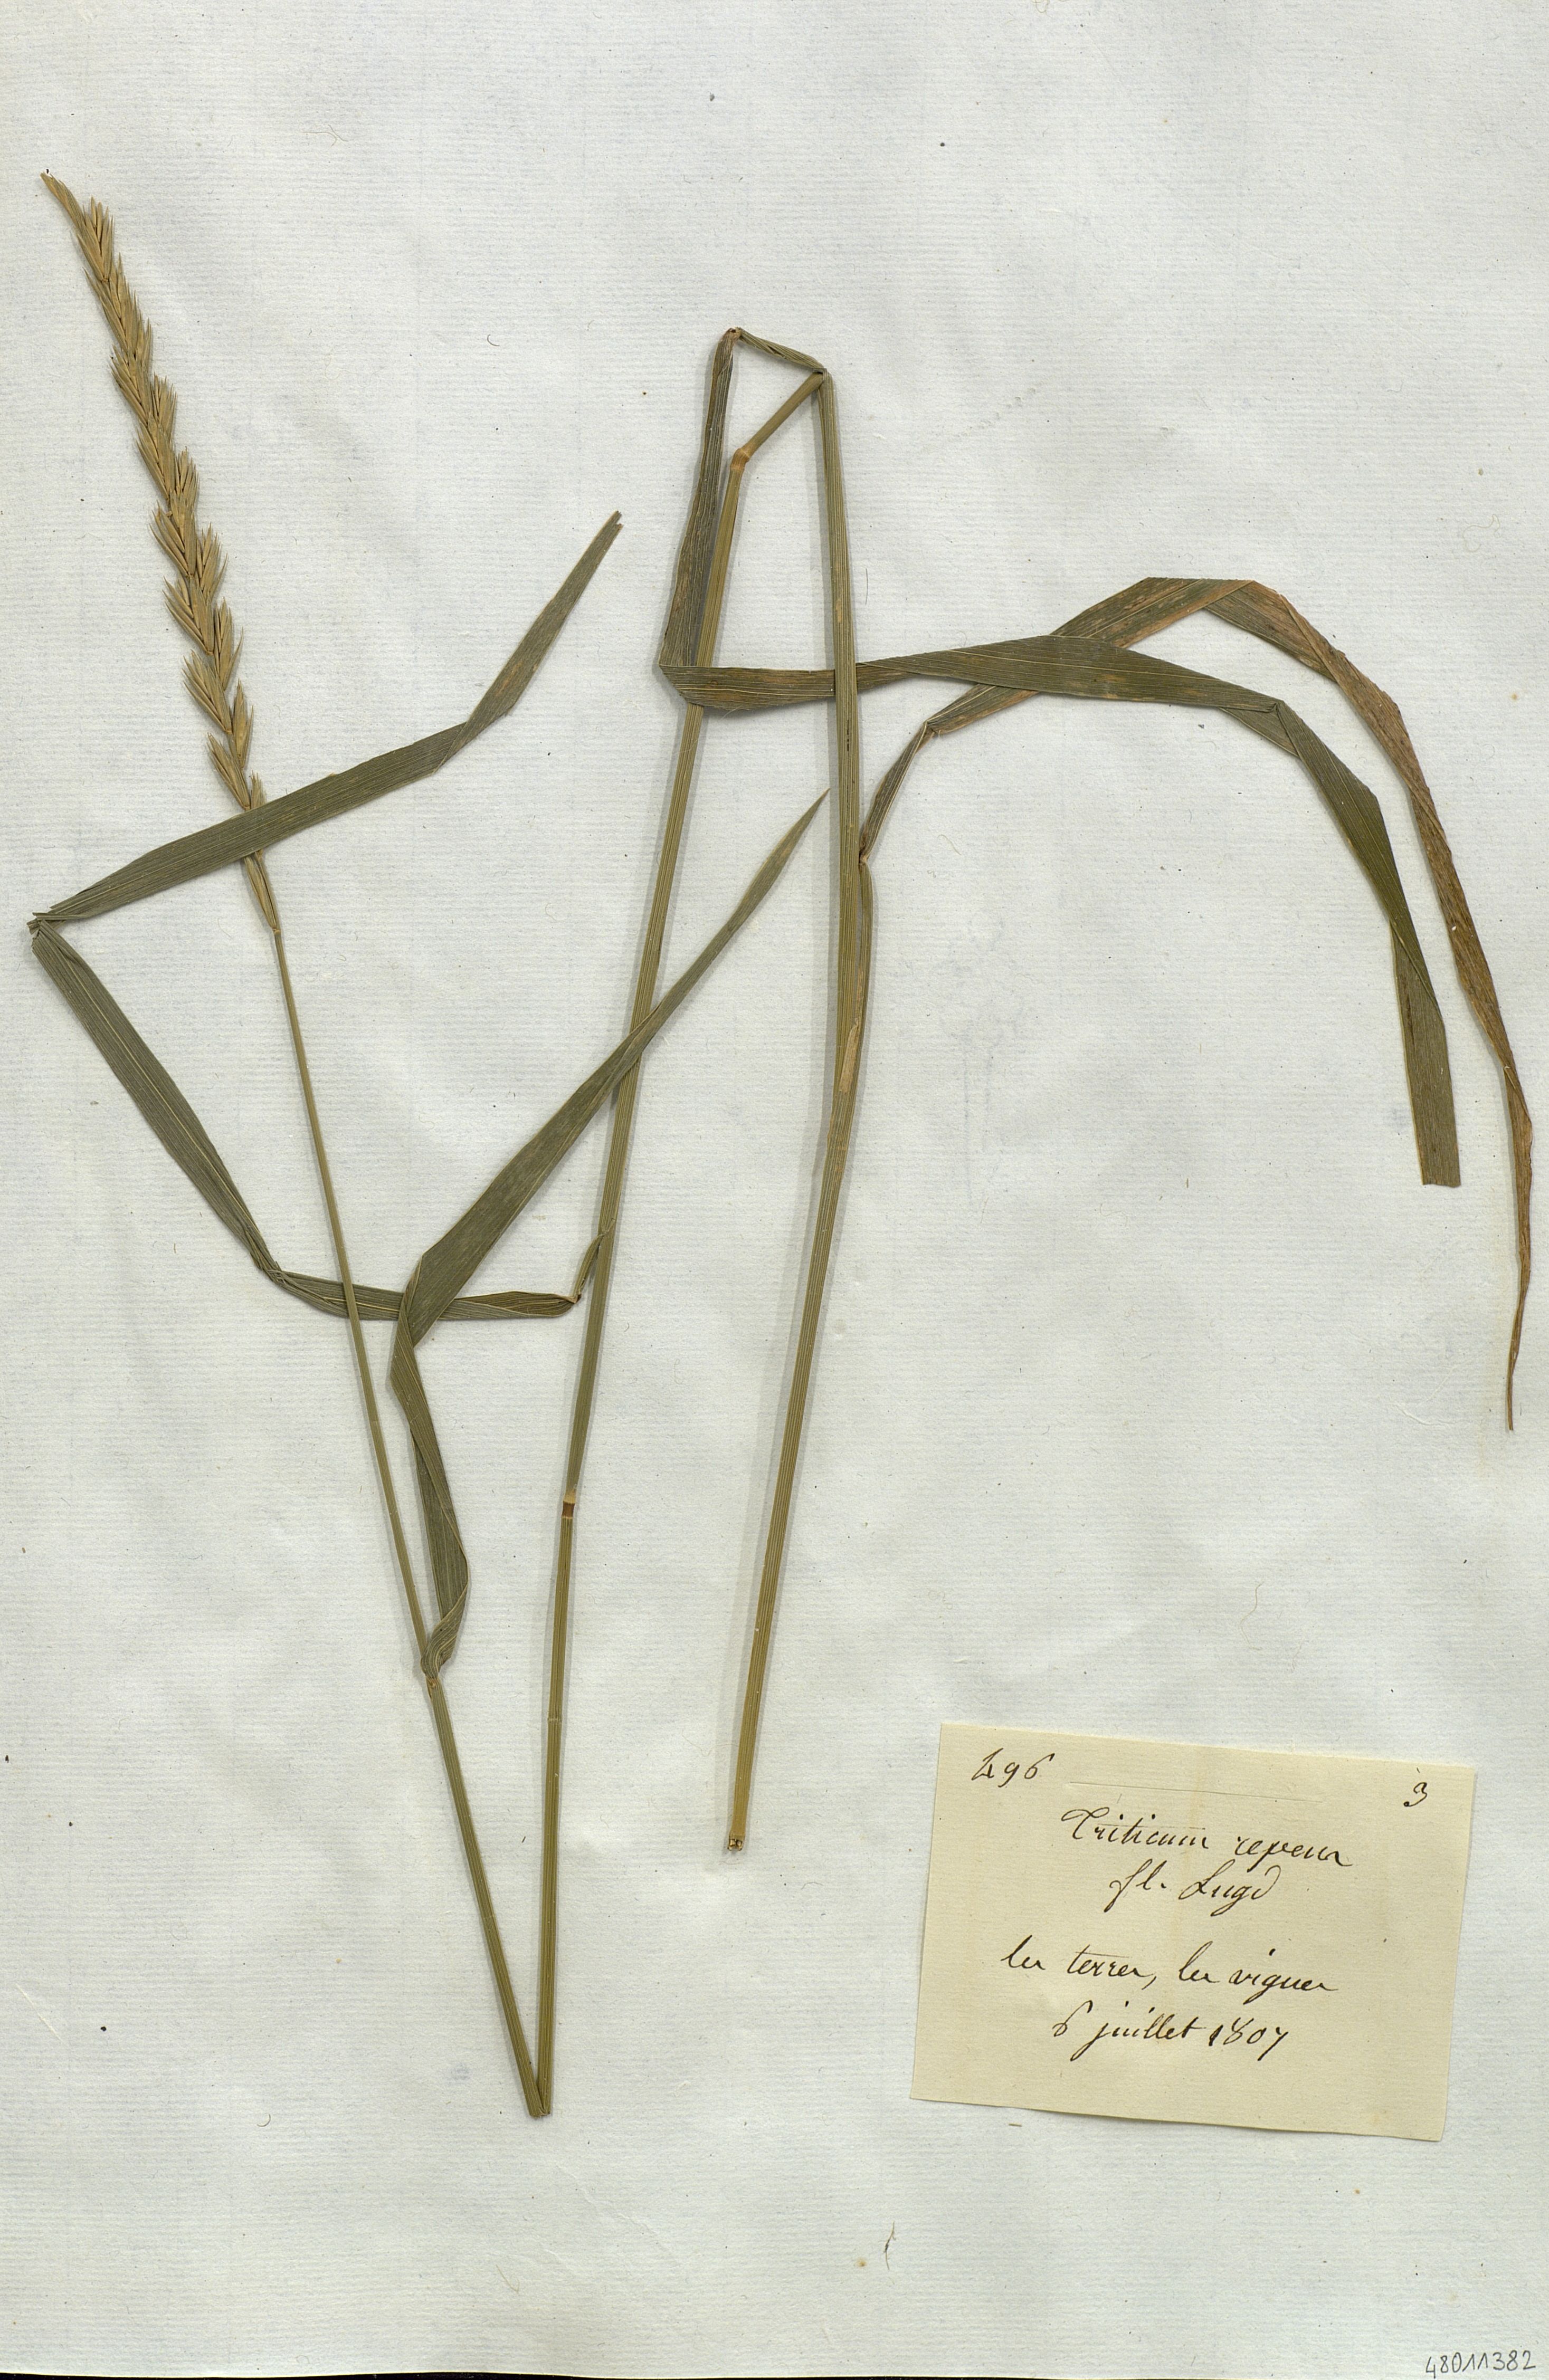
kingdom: Plantae
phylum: Tracheophyta
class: Liliopsida
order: Poales
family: Poaceae
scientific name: Poaceae
